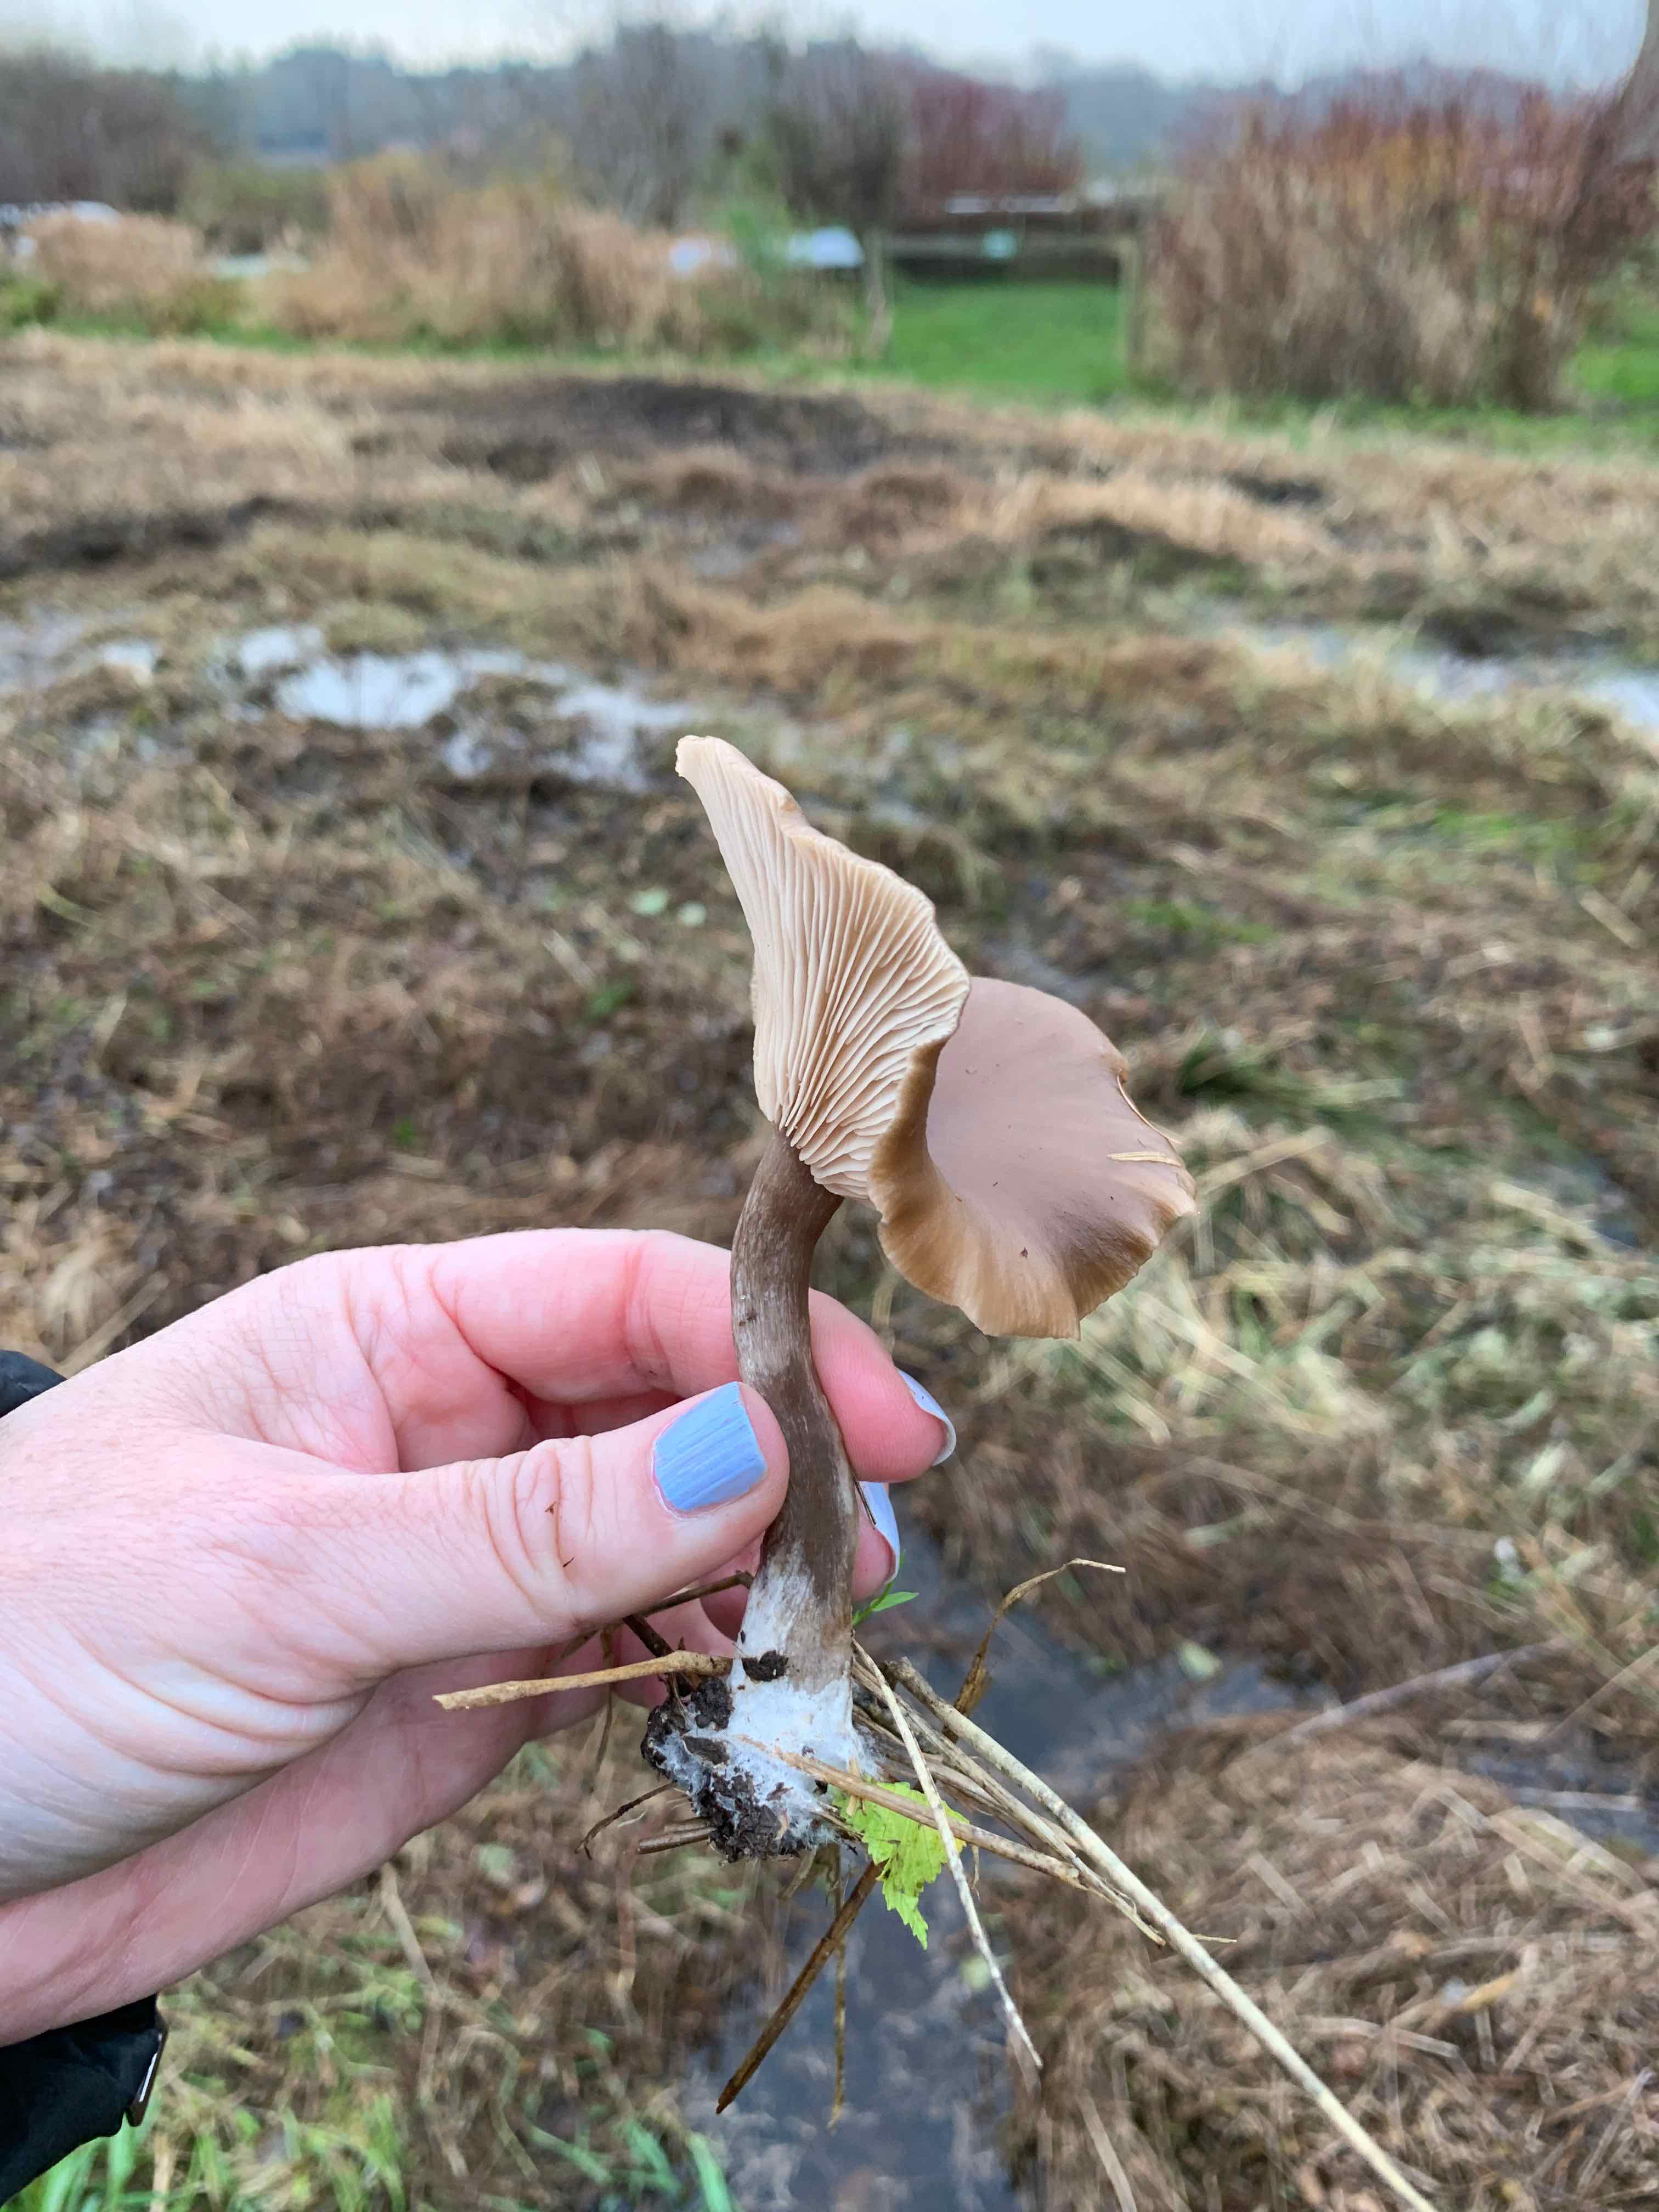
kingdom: Fungi
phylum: Basidiomycota
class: Agaricomycetes
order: Agaricales
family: Pseudoclitocybaceae
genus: Pseudoclitocybe
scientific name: Pseudoclitocybe cyathiformis
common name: almindelig bægertragthat
